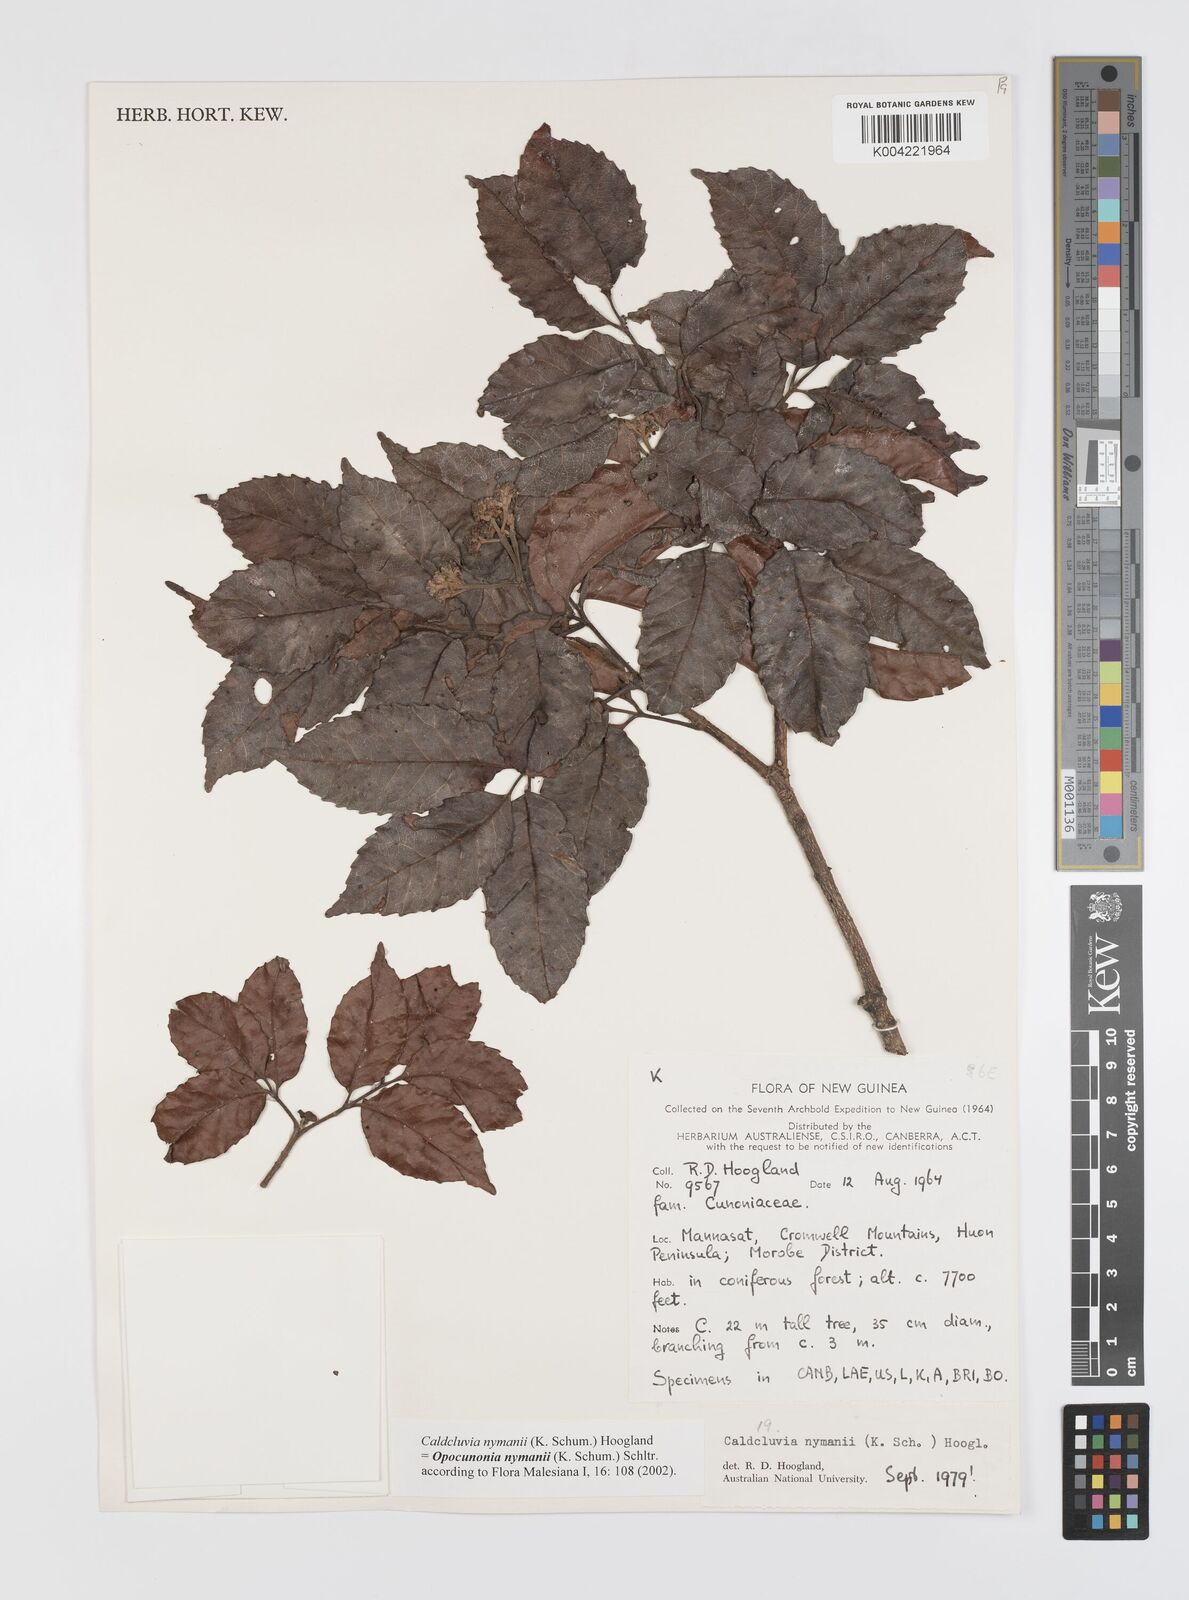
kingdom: Plantae
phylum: Tracheophyta
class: Magnoliopsida
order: Oxalidales
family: Cunoniaceae
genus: Opocunonia
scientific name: Opocunonia nymanii
